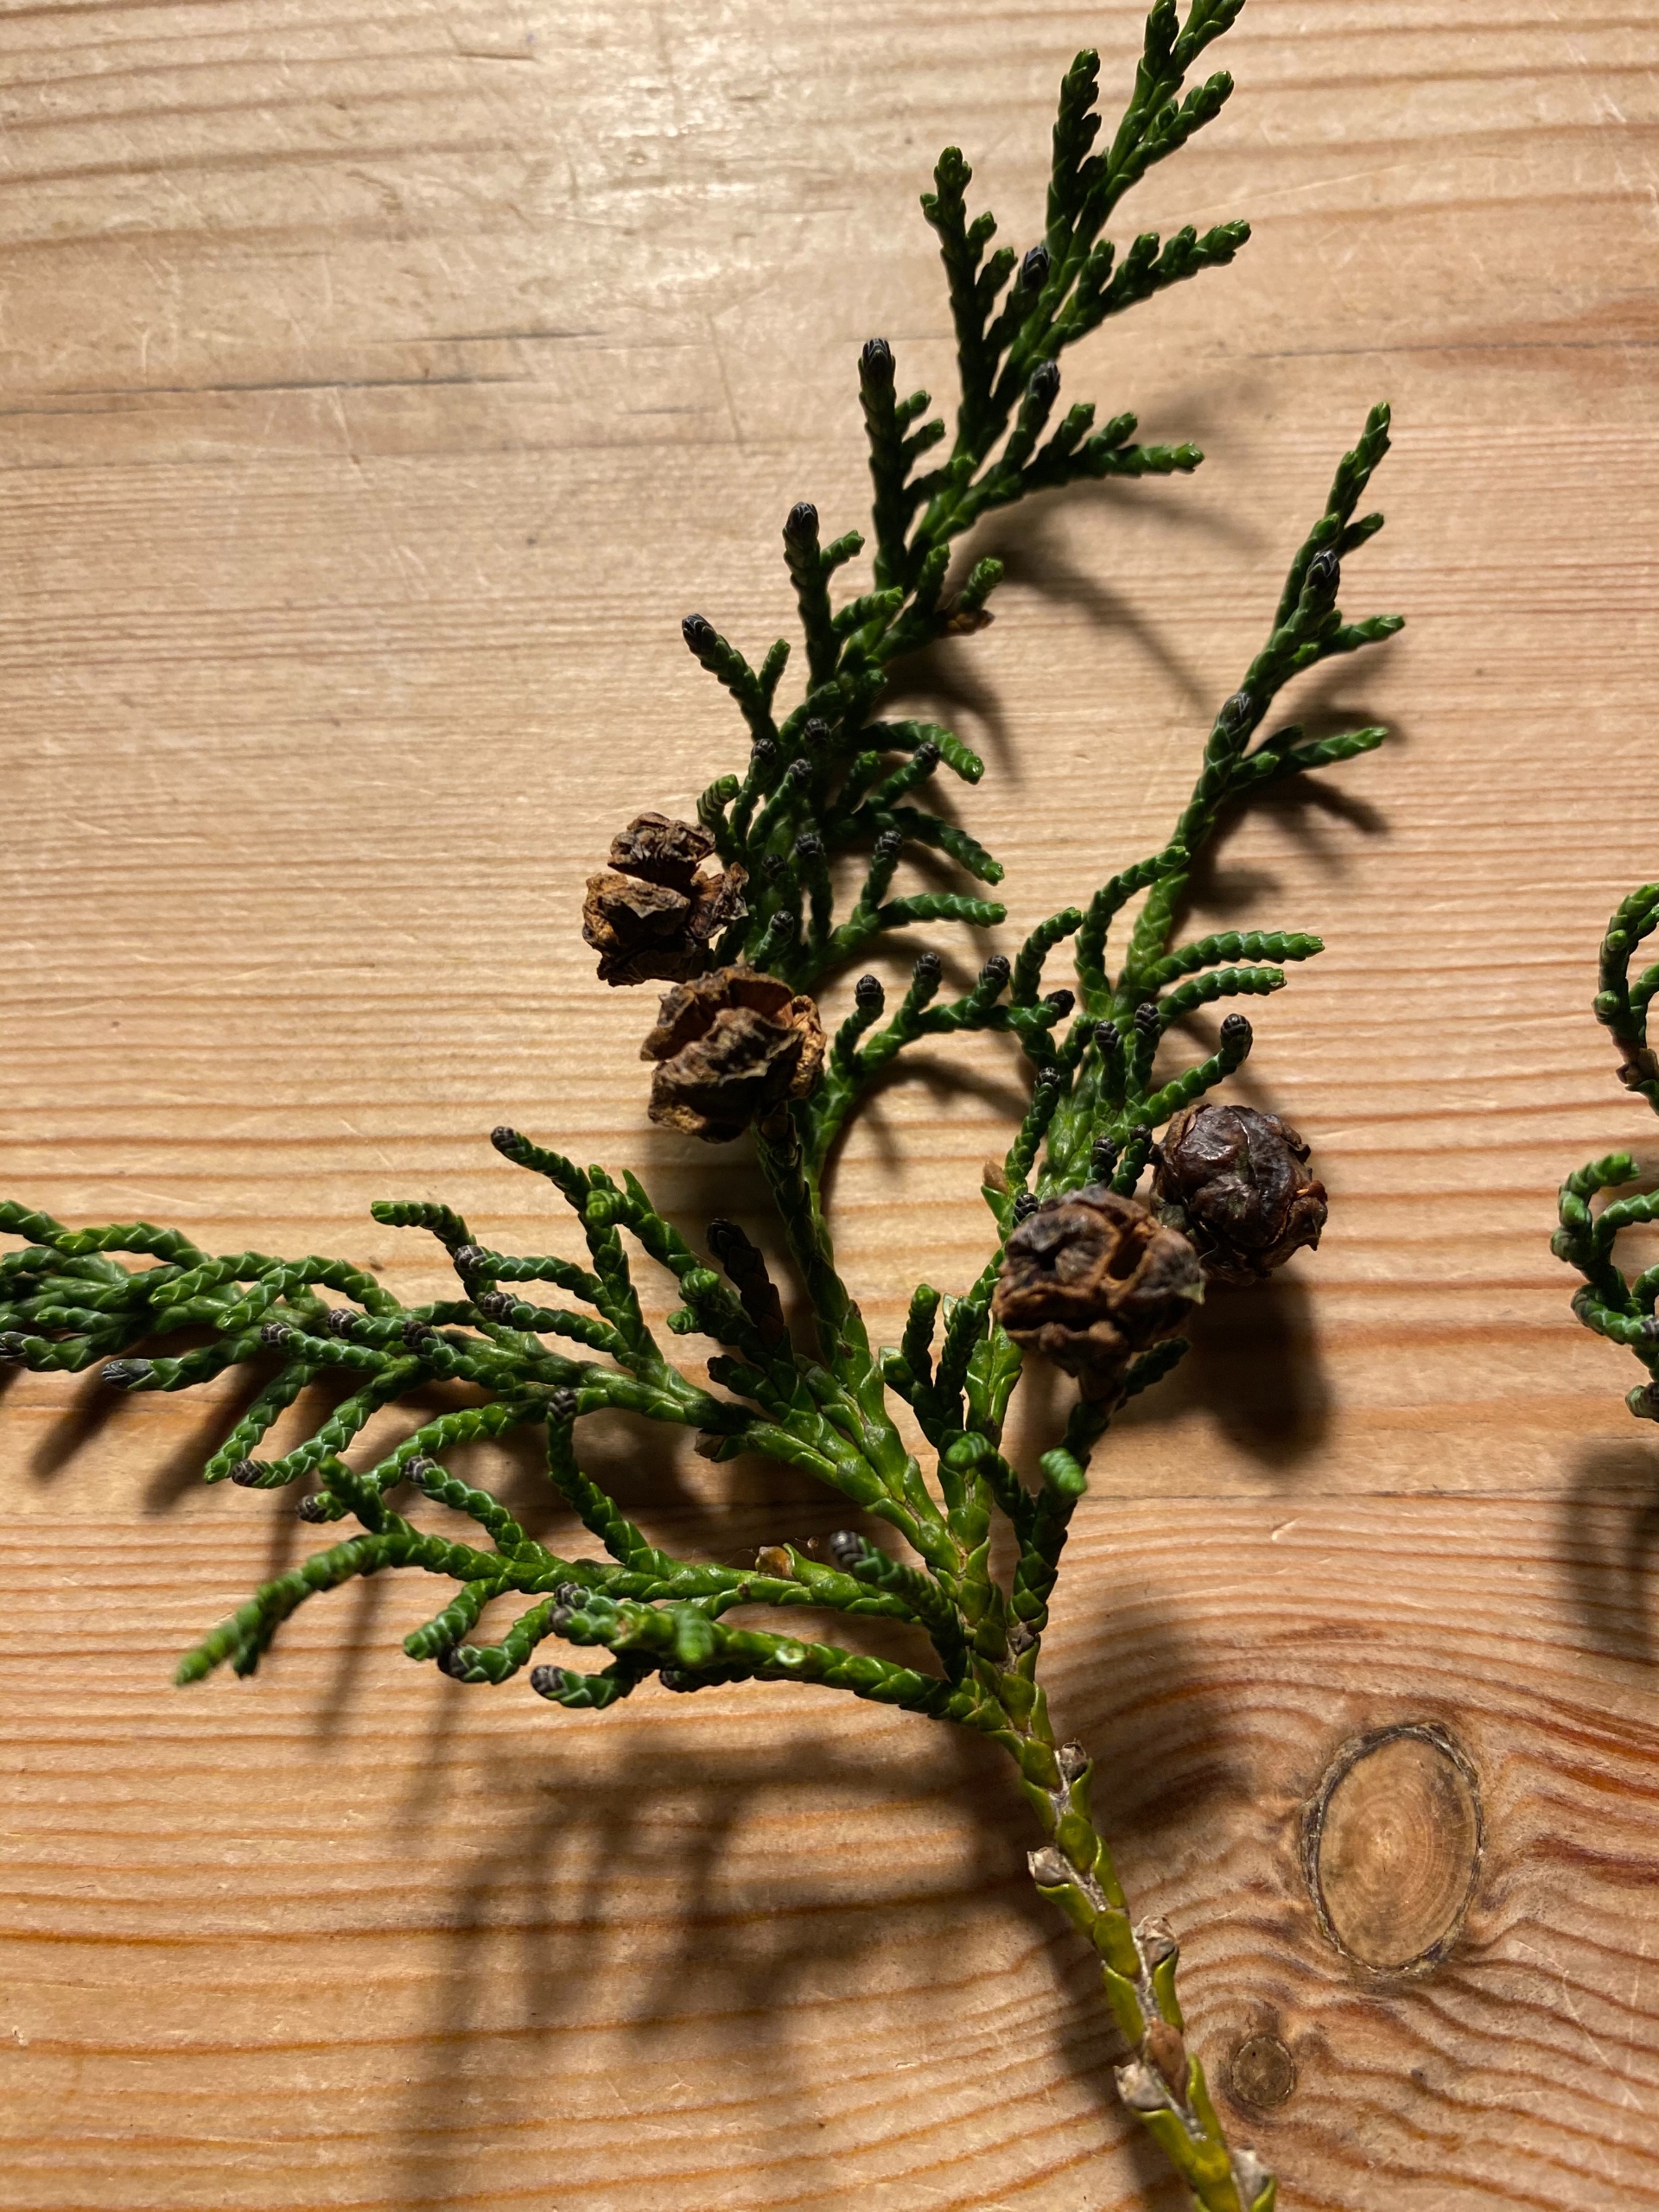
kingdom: Plantae
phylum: Tracheophyta
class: Pinopsida
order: Pinales
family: Cupressaceae
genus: Chamaecyparis
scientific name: Chamaecyparis lawsoniana
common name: Ædelcypres
